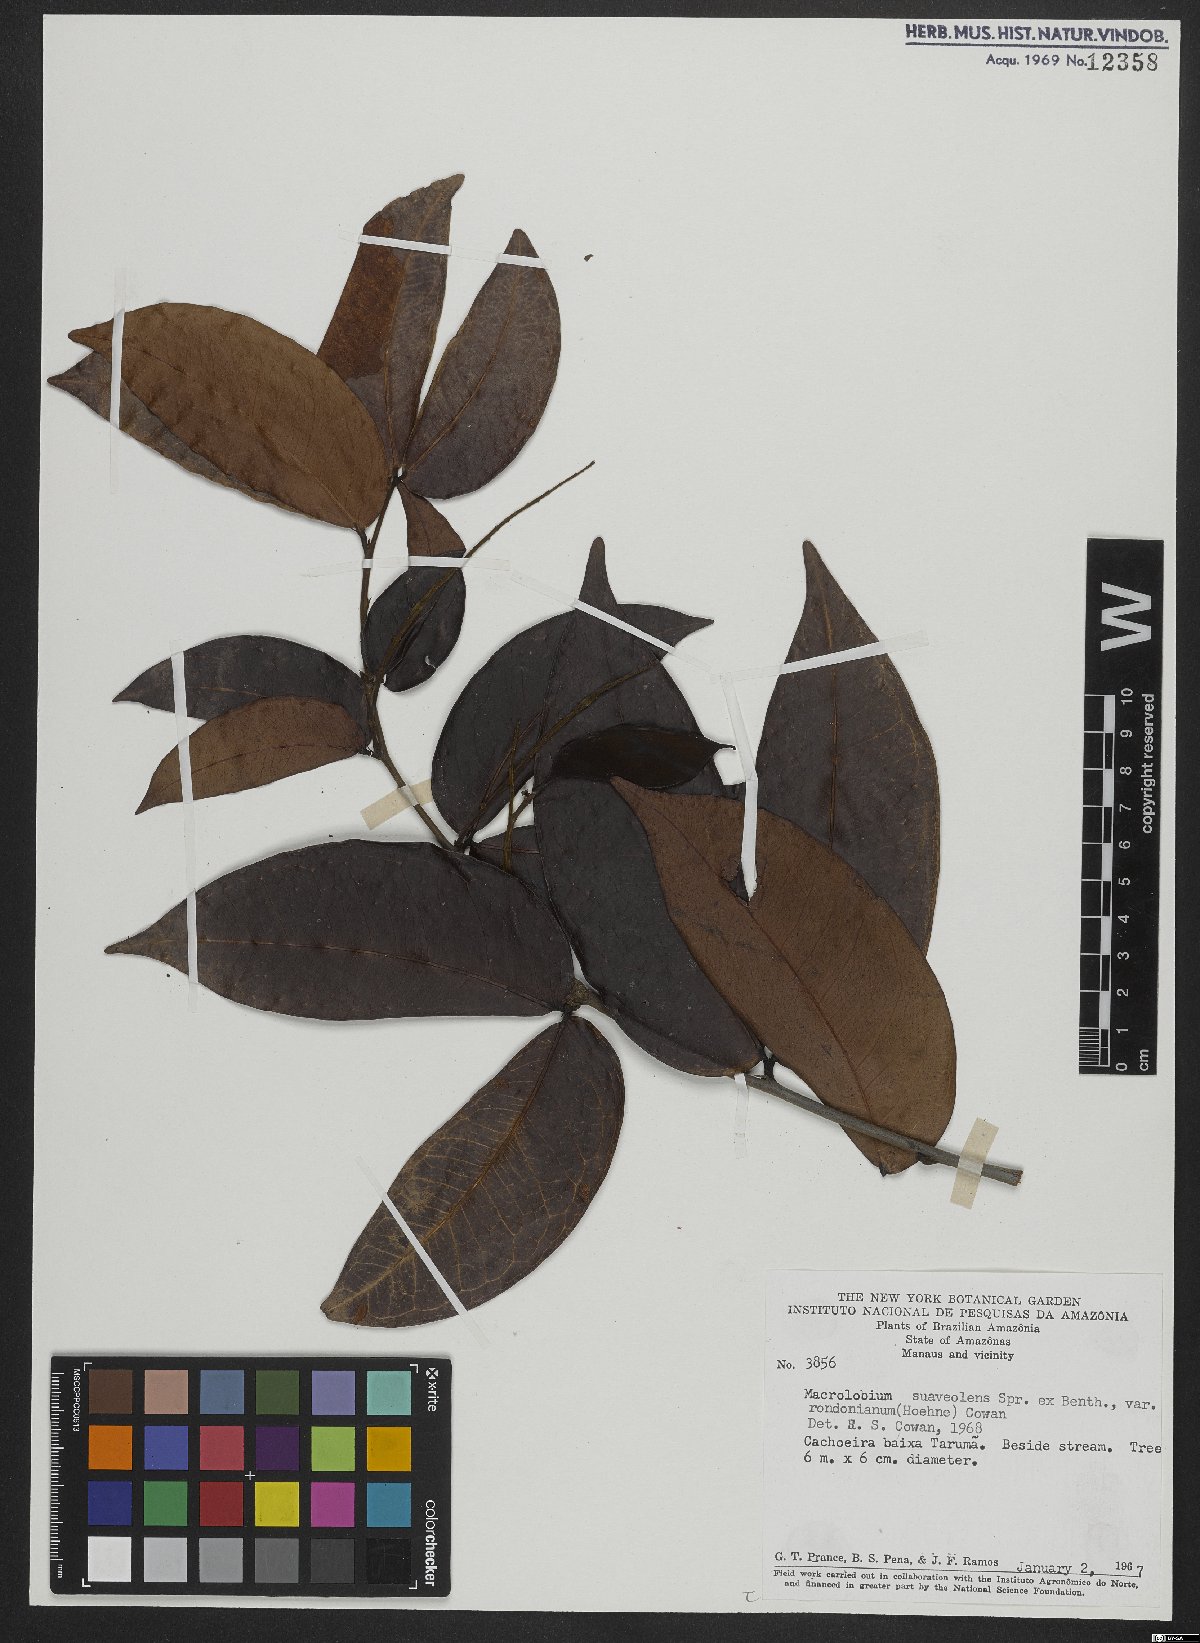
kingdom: Plantae
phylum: Tracheophyta
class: Magnoliopsida
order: Fabales
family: Fabaceae
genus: Macrolobium
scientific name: Macrolobium suaveolens
